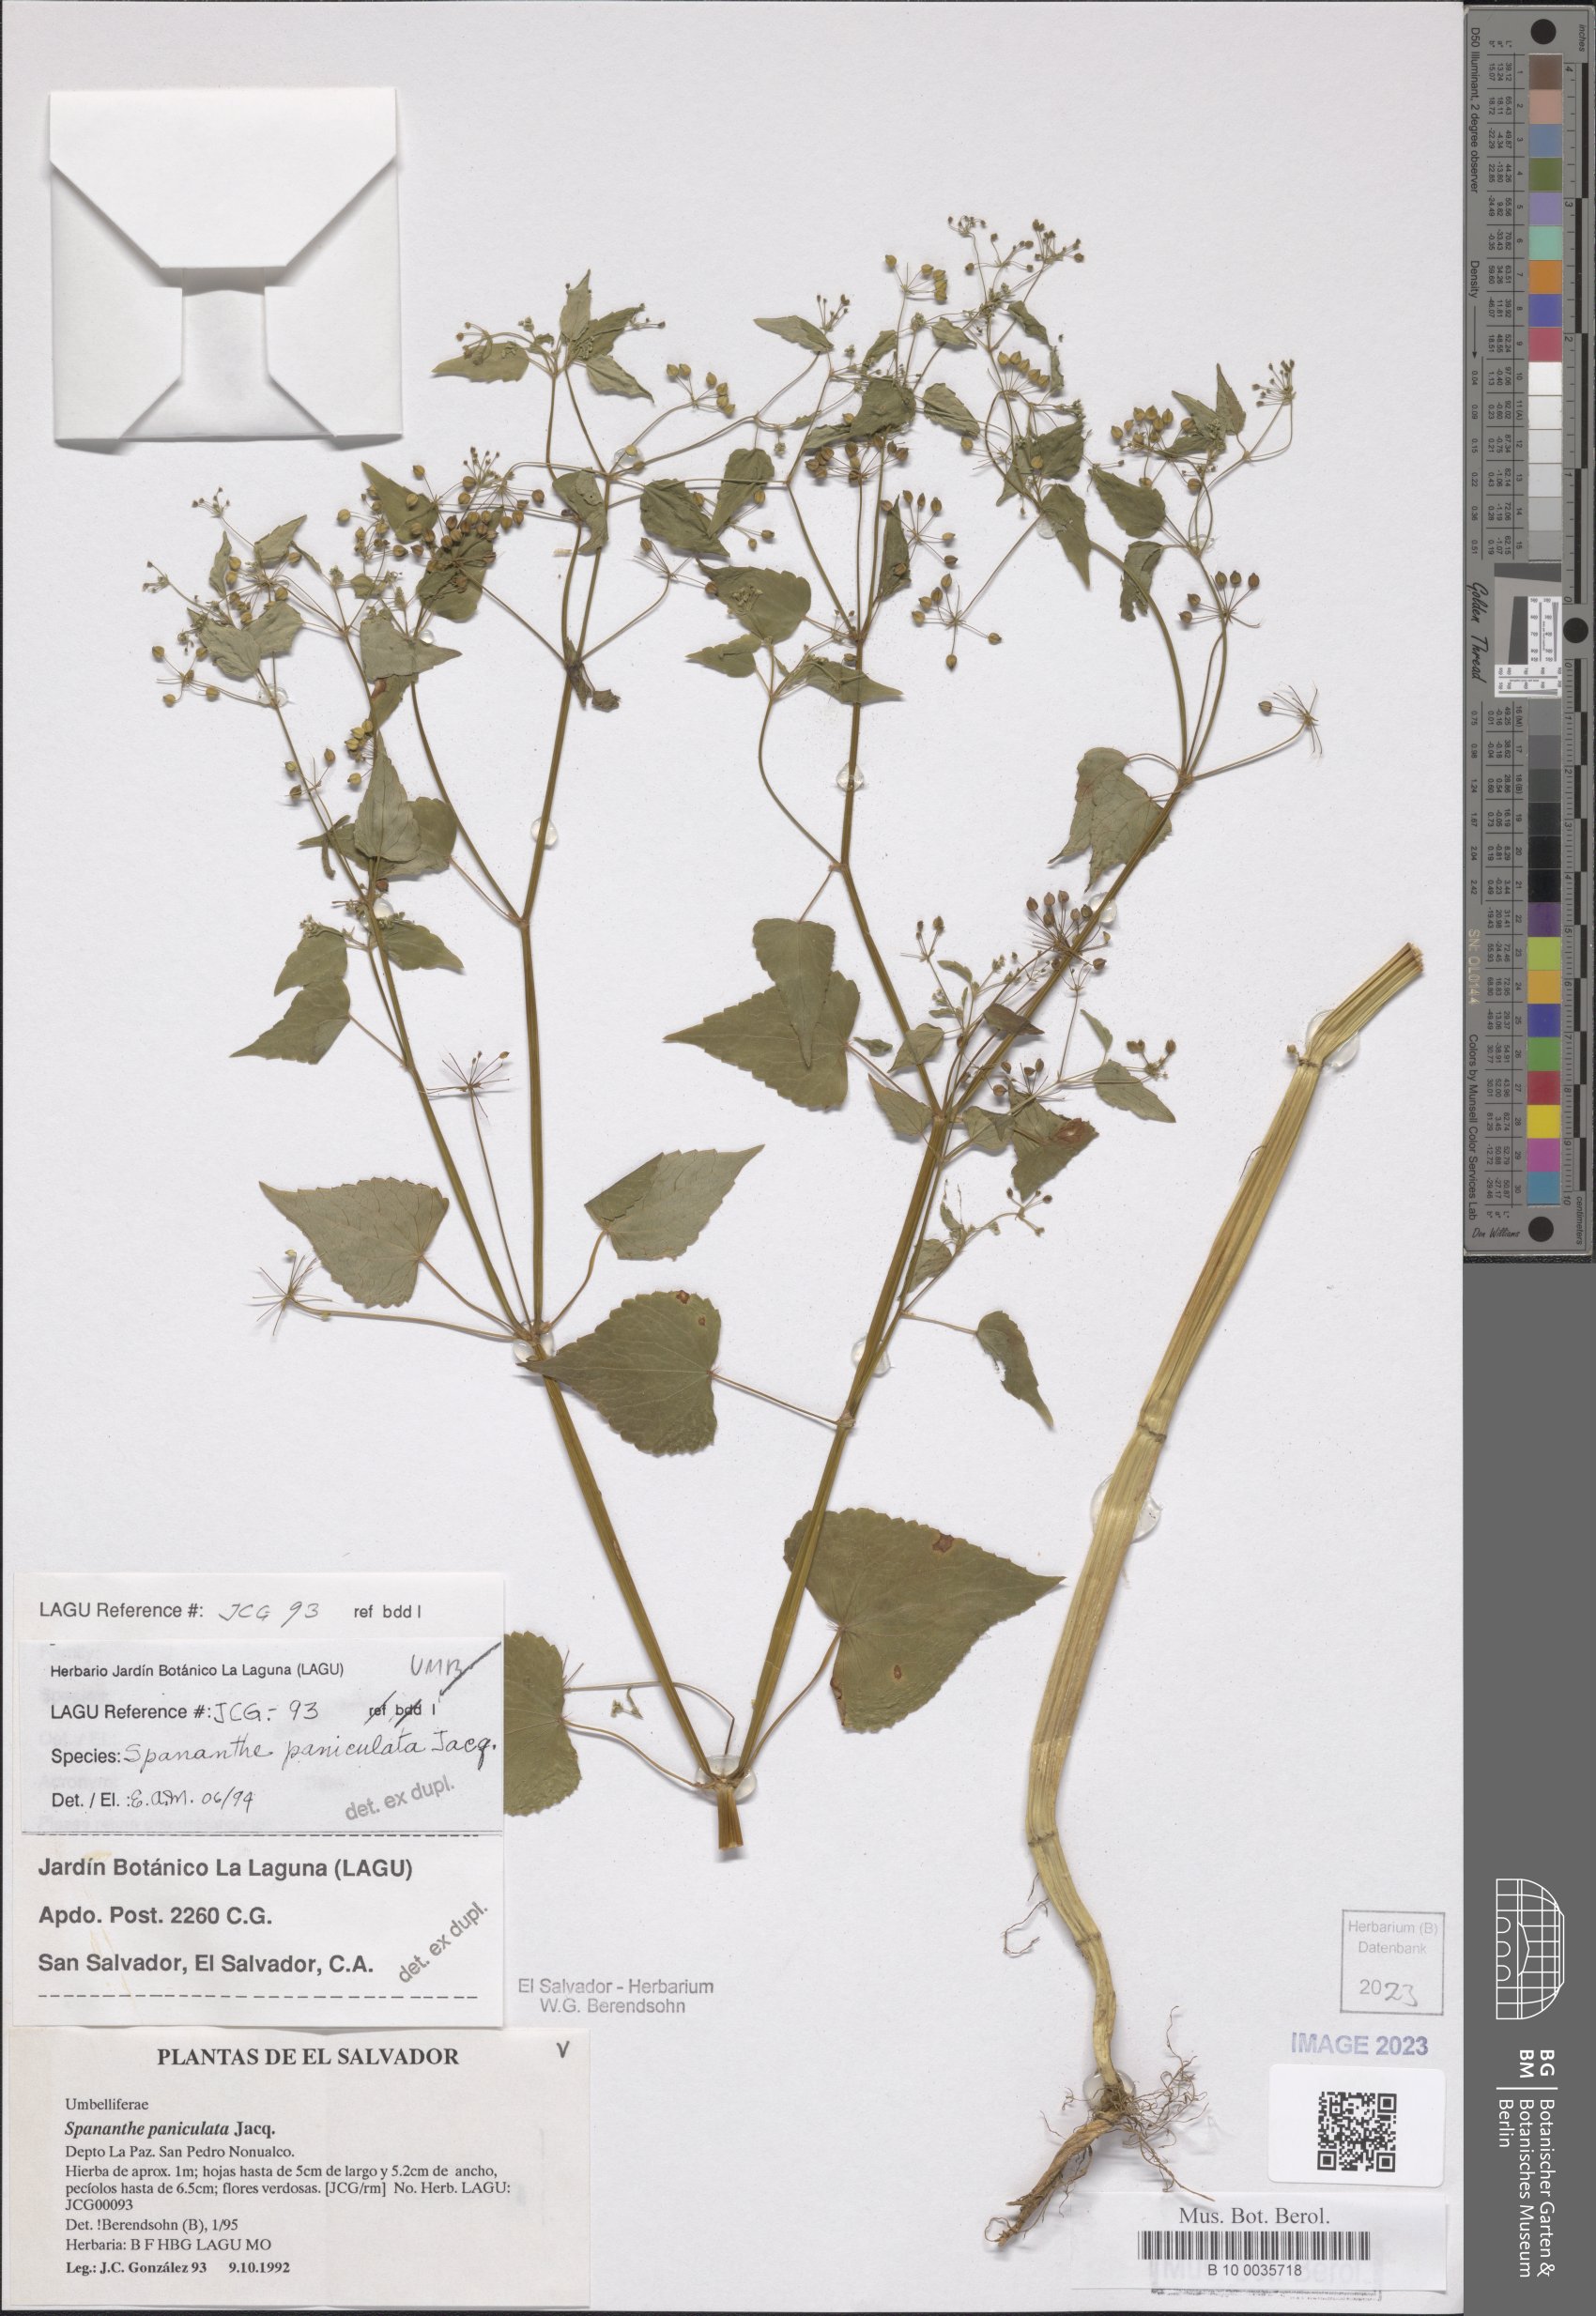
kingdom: Plantae
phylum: Tracheophyta
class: Magnoliopsida
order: Apiales
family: Apiaceae
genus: Spananthe
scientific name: Spananthe paniculata
